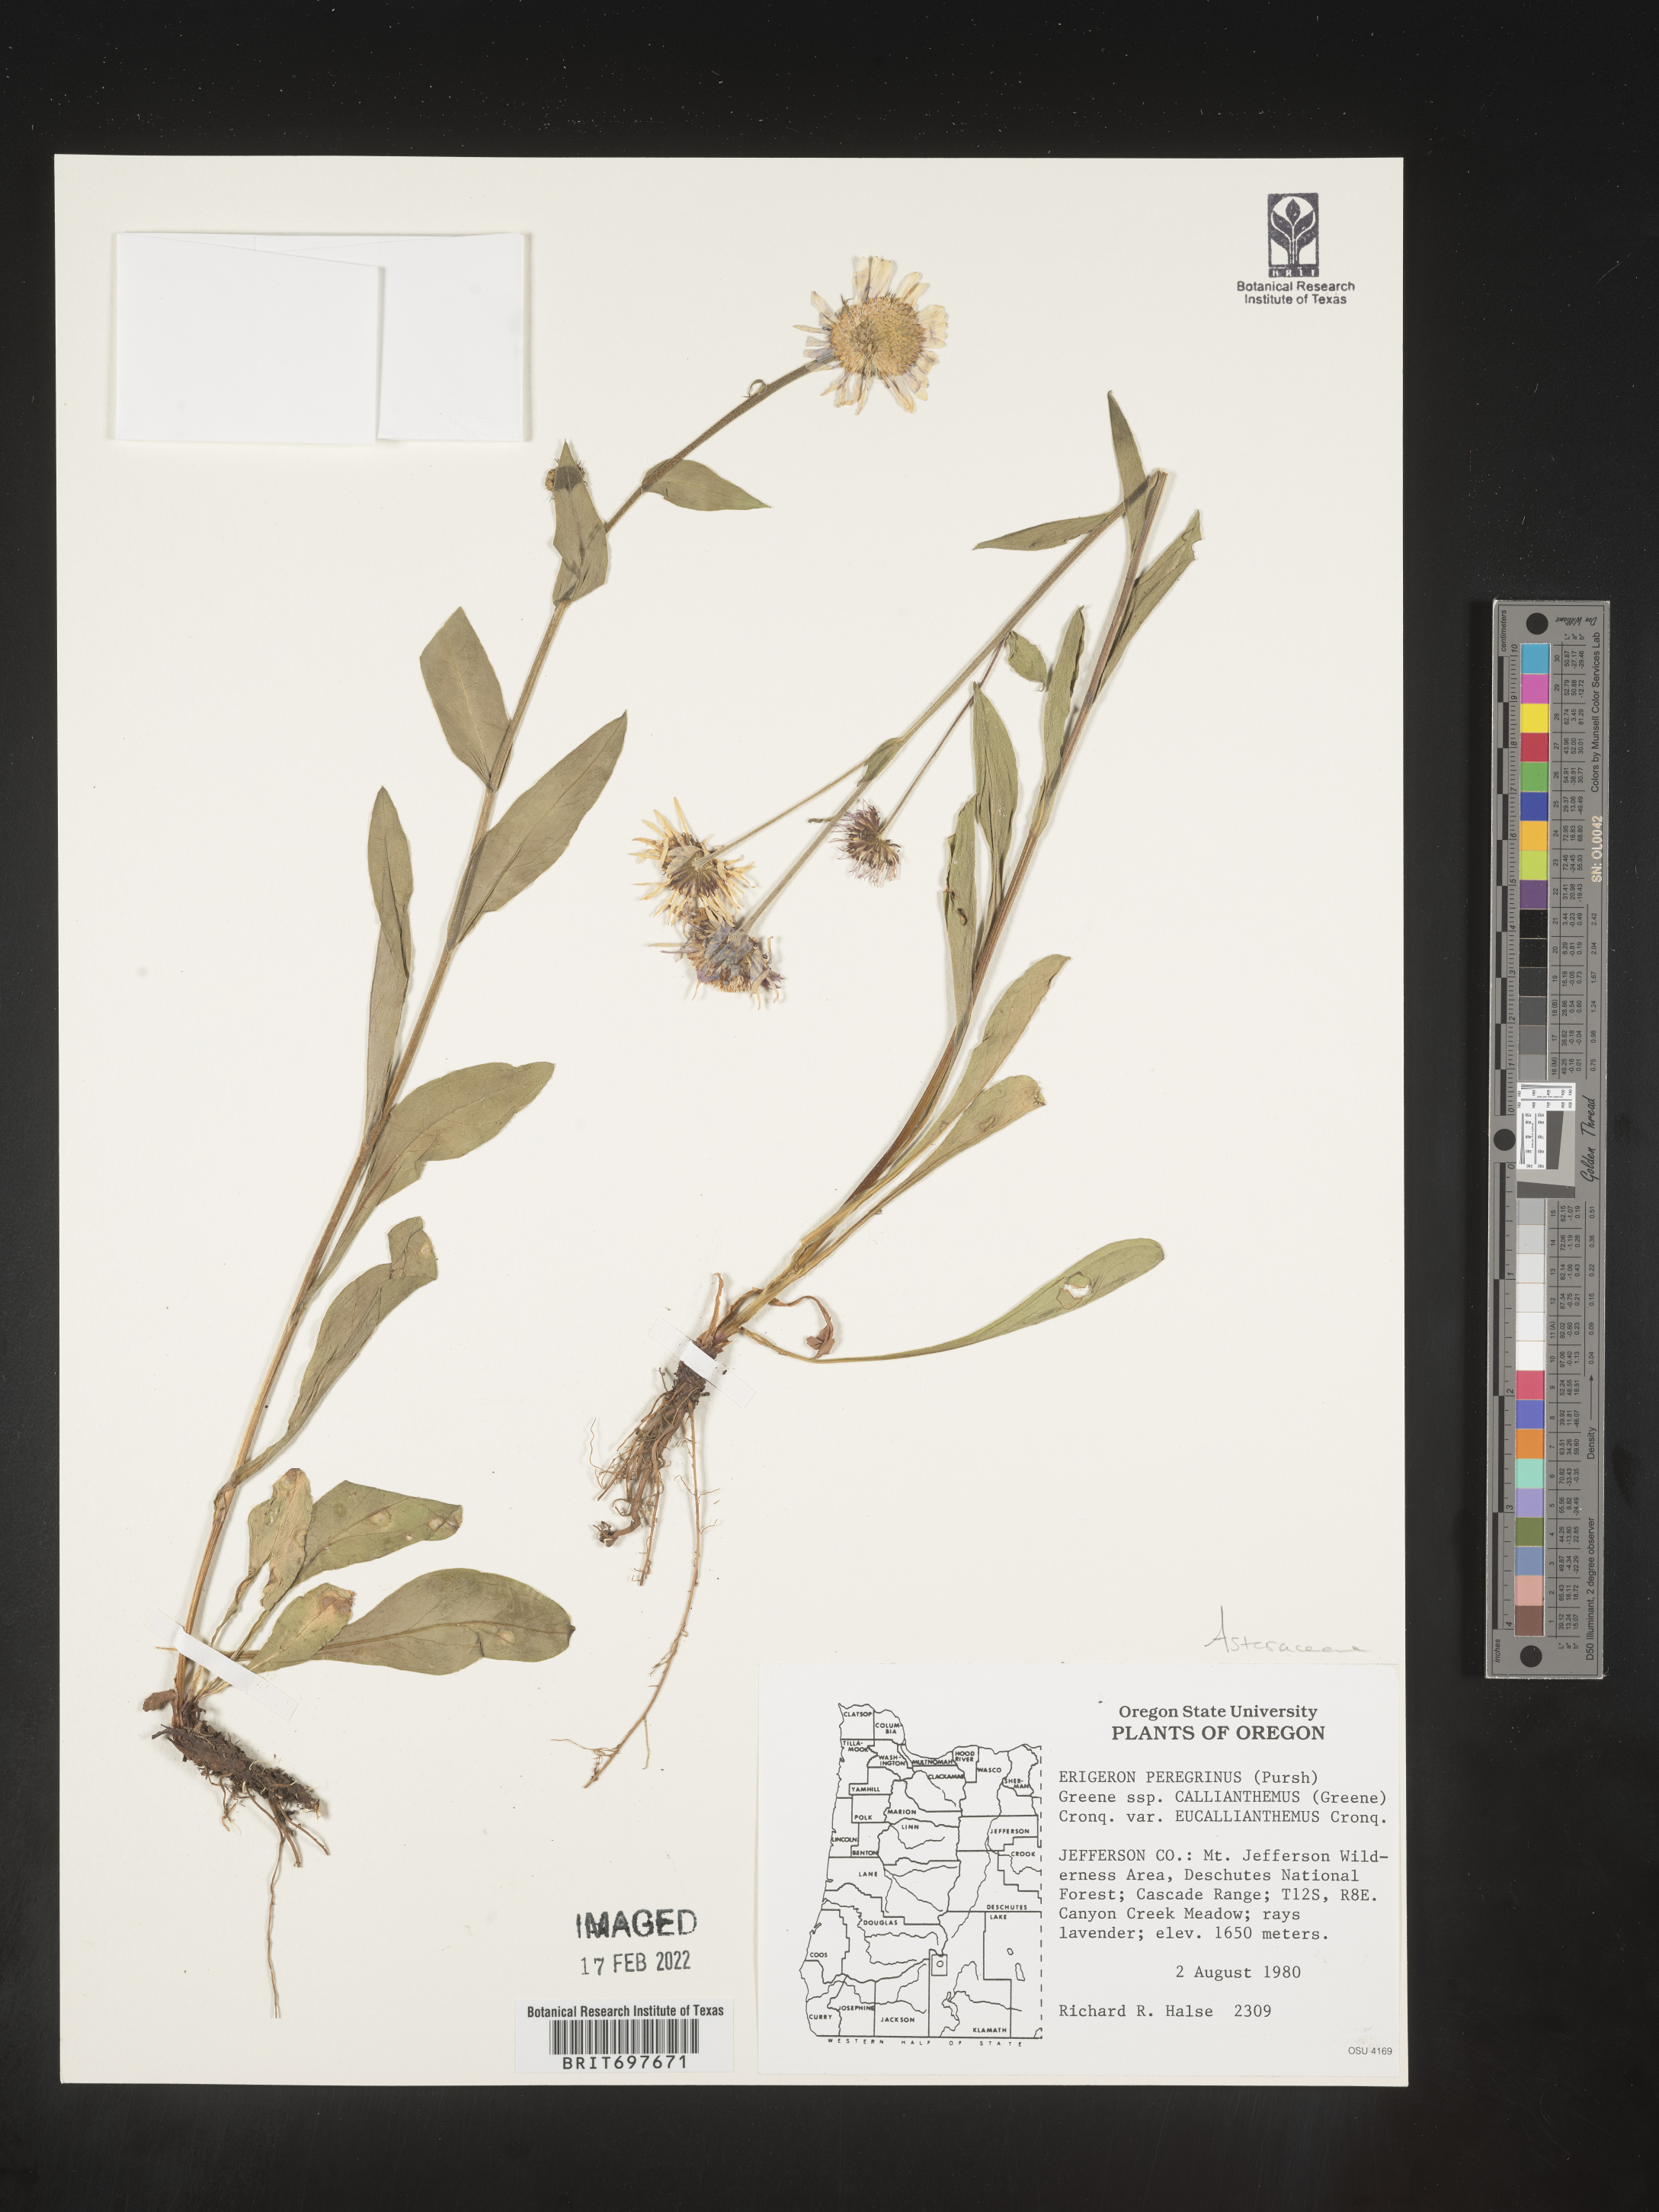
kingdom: Plantae
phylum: Tracheophyta
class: Magnoliopsida
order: Asterales
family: Asteraceae
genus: Erigeron
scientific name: Erigeron glacialis
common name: Subalpine fleabane
